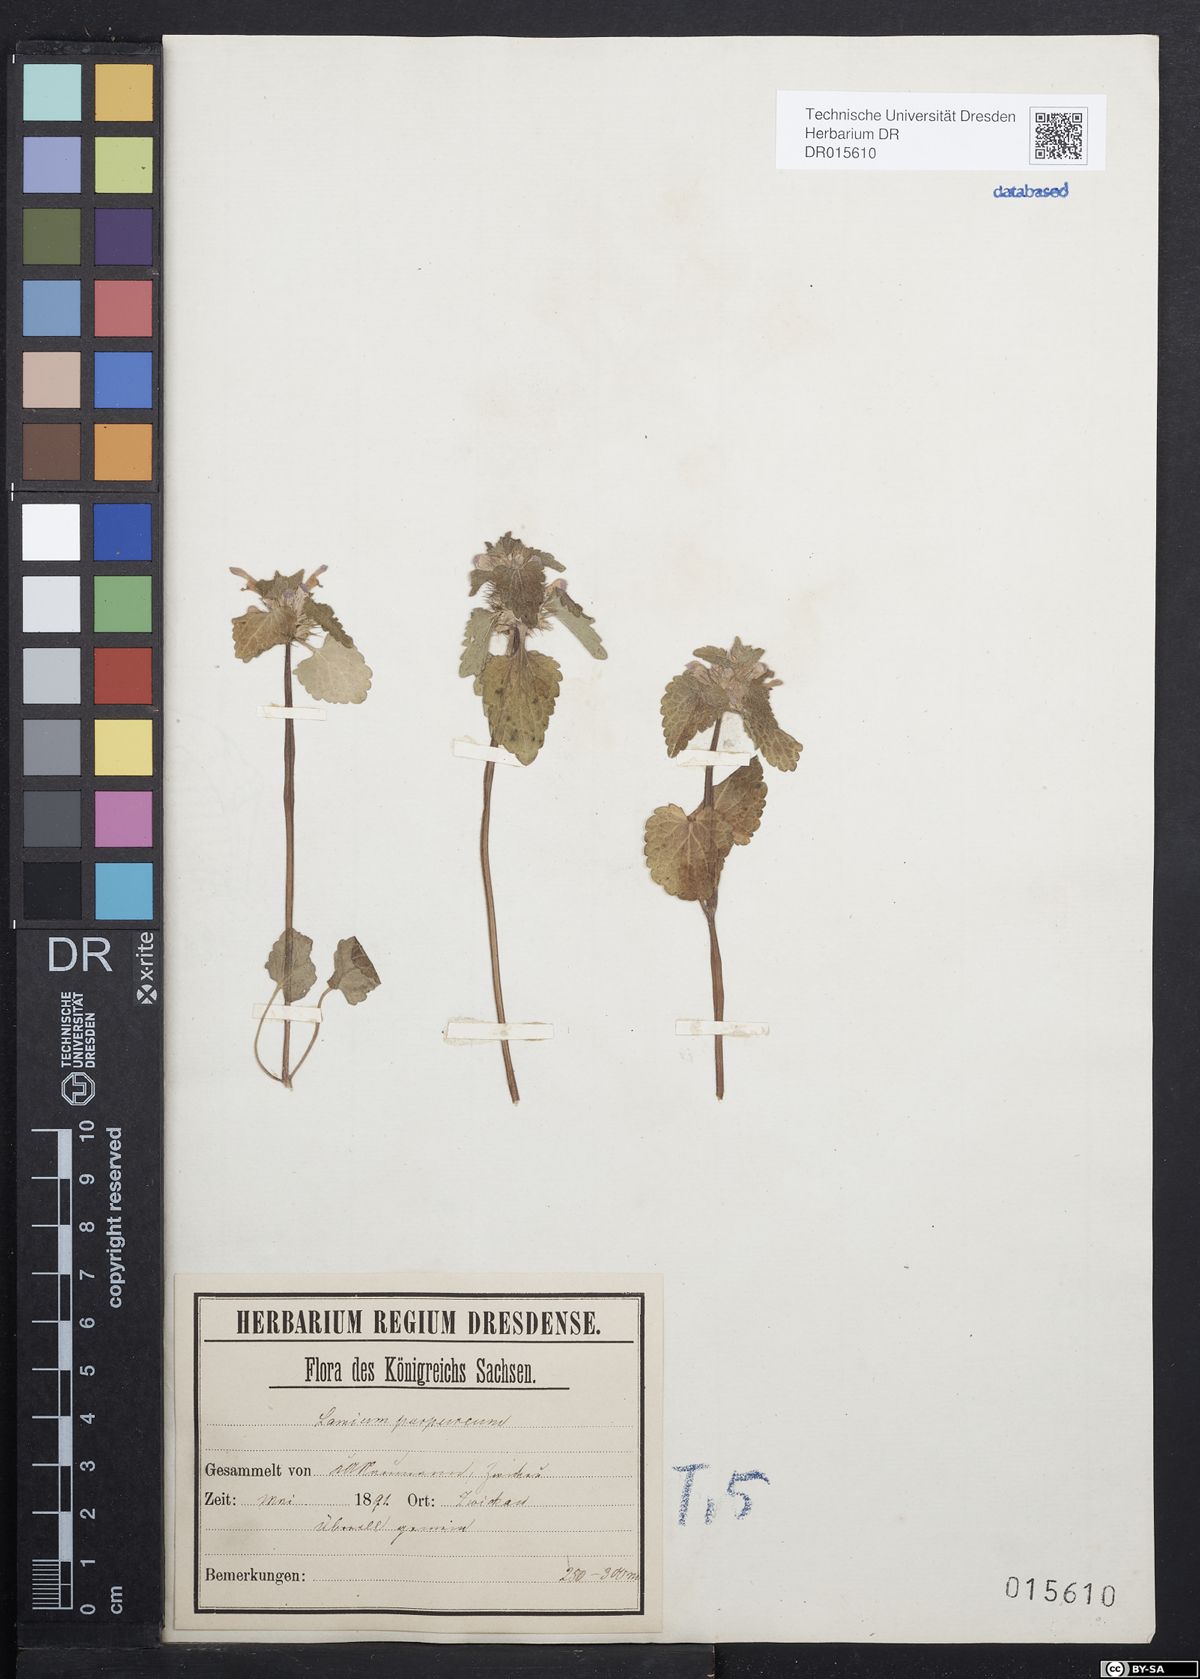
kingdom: Plantae
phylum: Tracheophyta
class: Magnoliopsida
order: Lamiales
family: Lamiaceae
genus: Lamium
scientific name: Lamium purpureum
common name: Red dead-nettle
